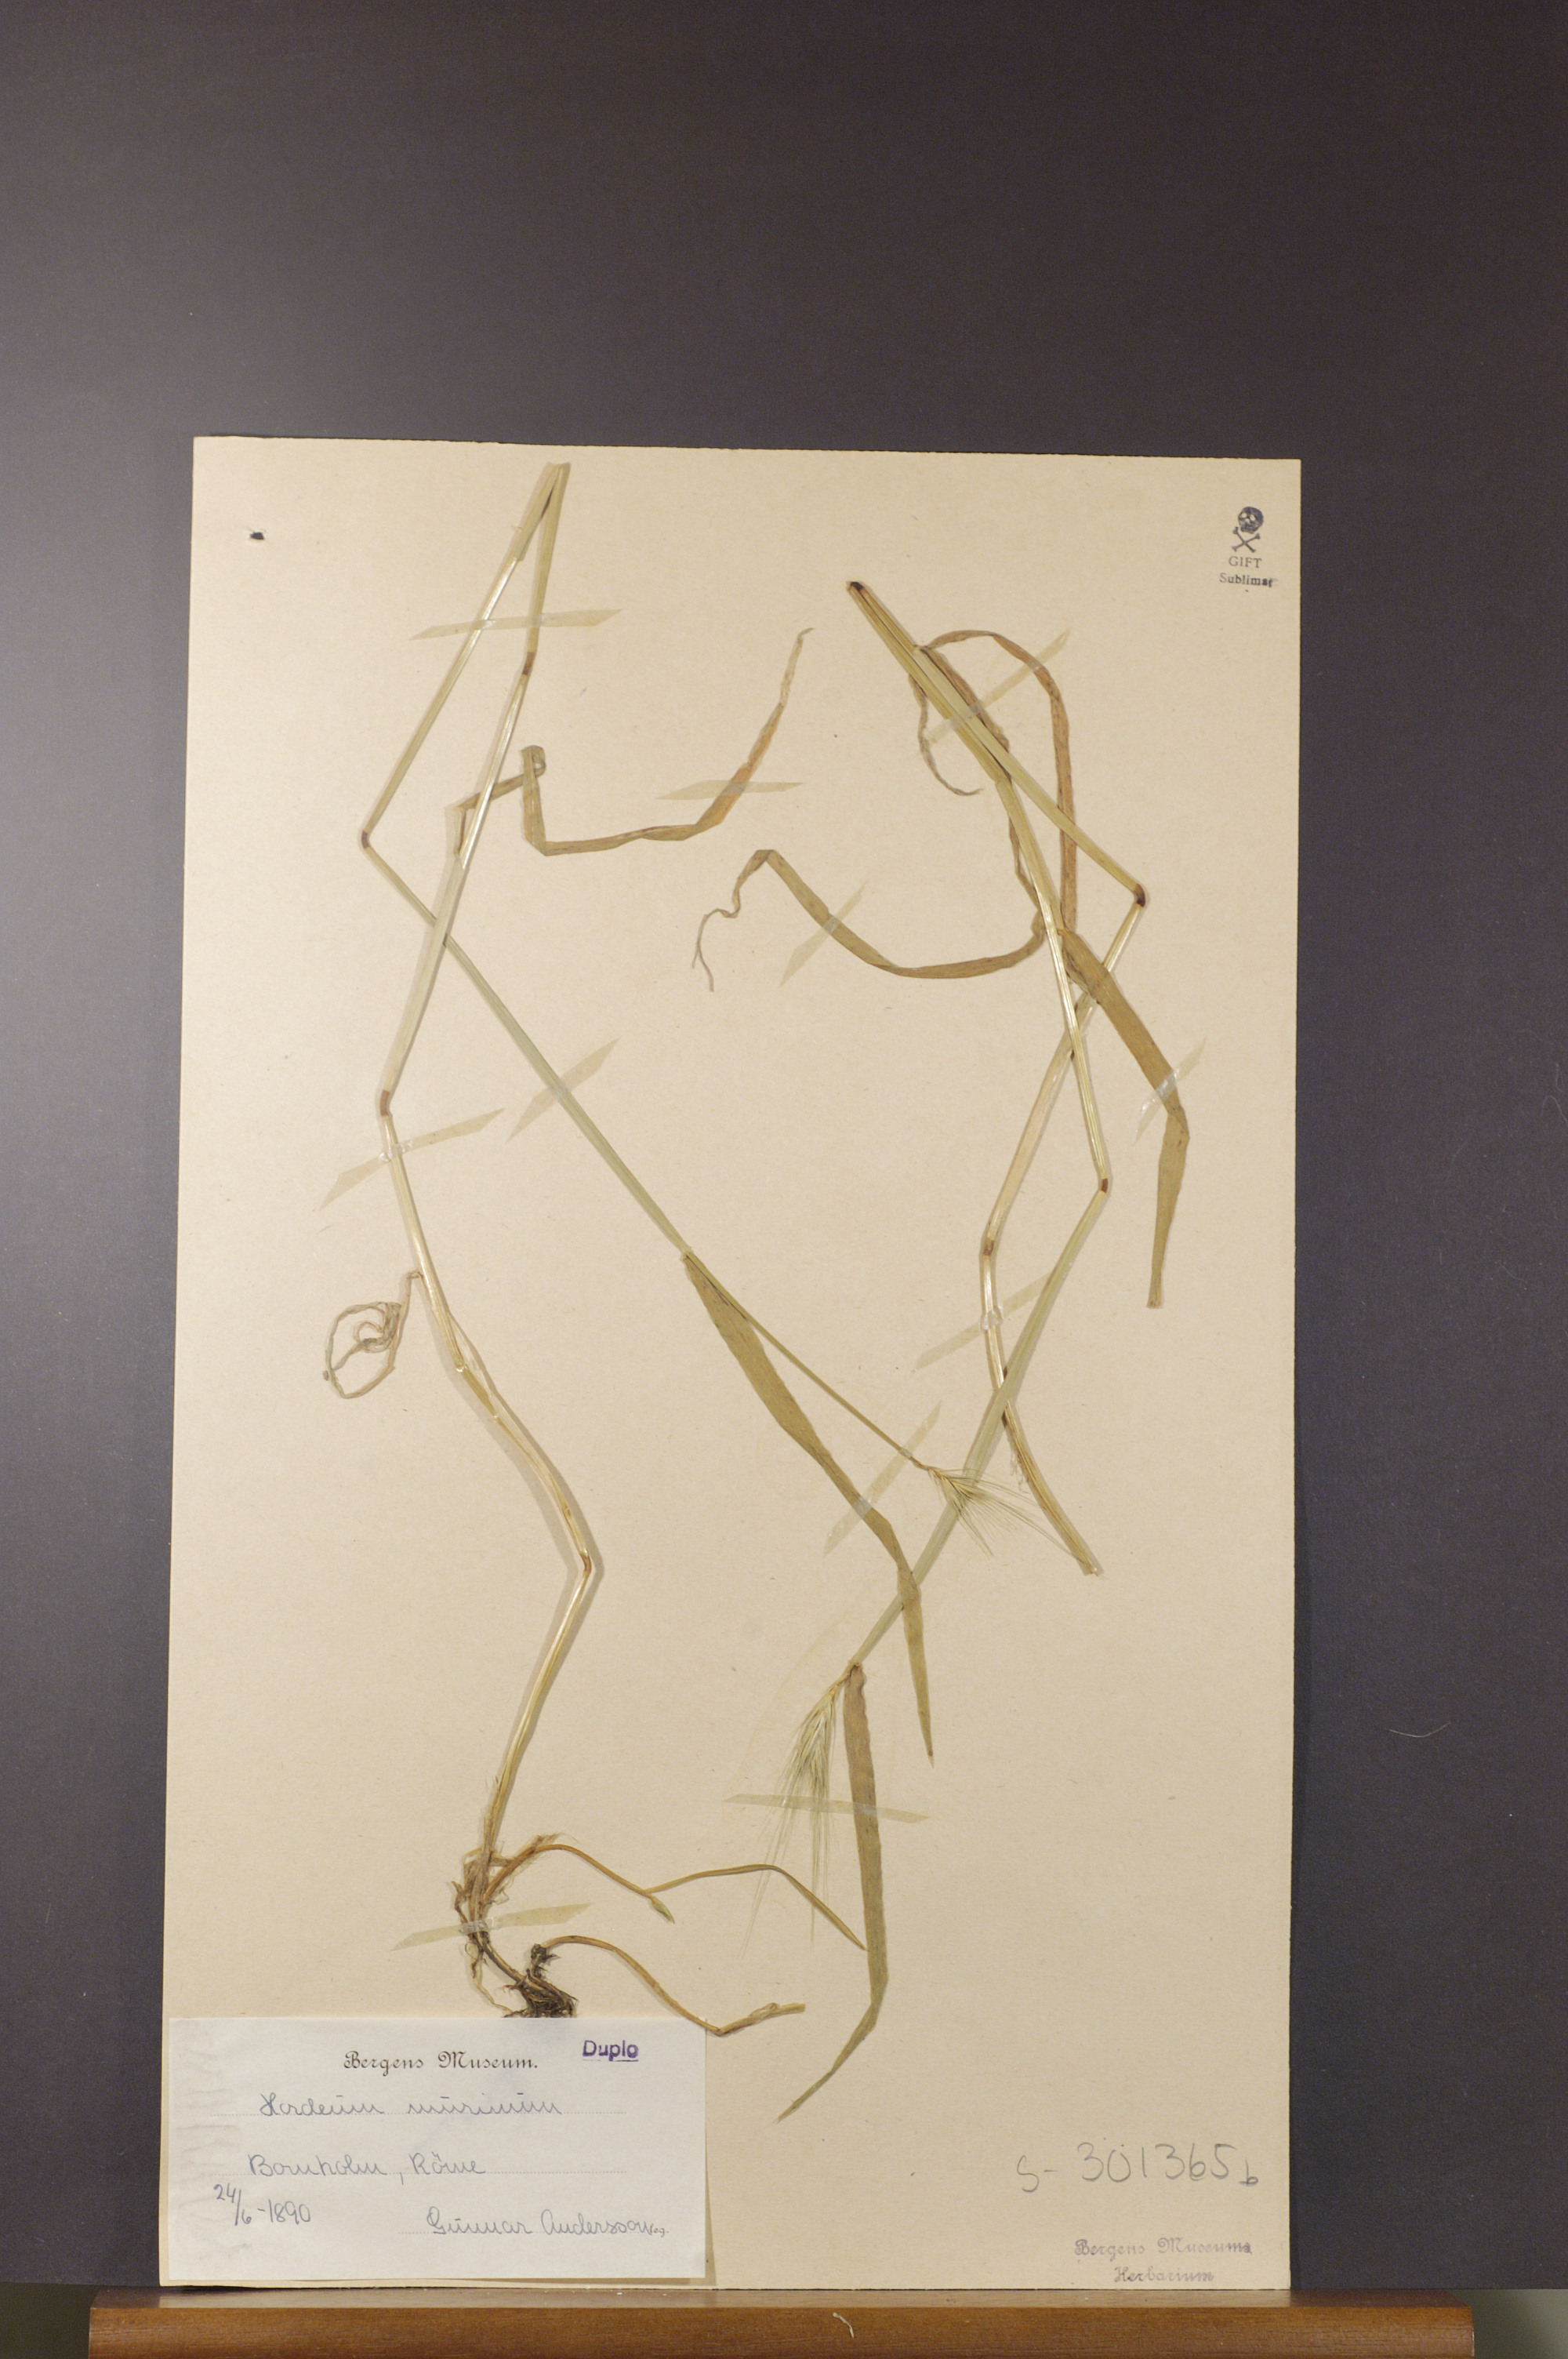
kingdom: Plantae
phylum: Tracheophyta
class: Liliopsida
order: Poales
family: Poaceae
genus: Hordeum
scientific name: Hordeum murinum
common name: Wall barley
